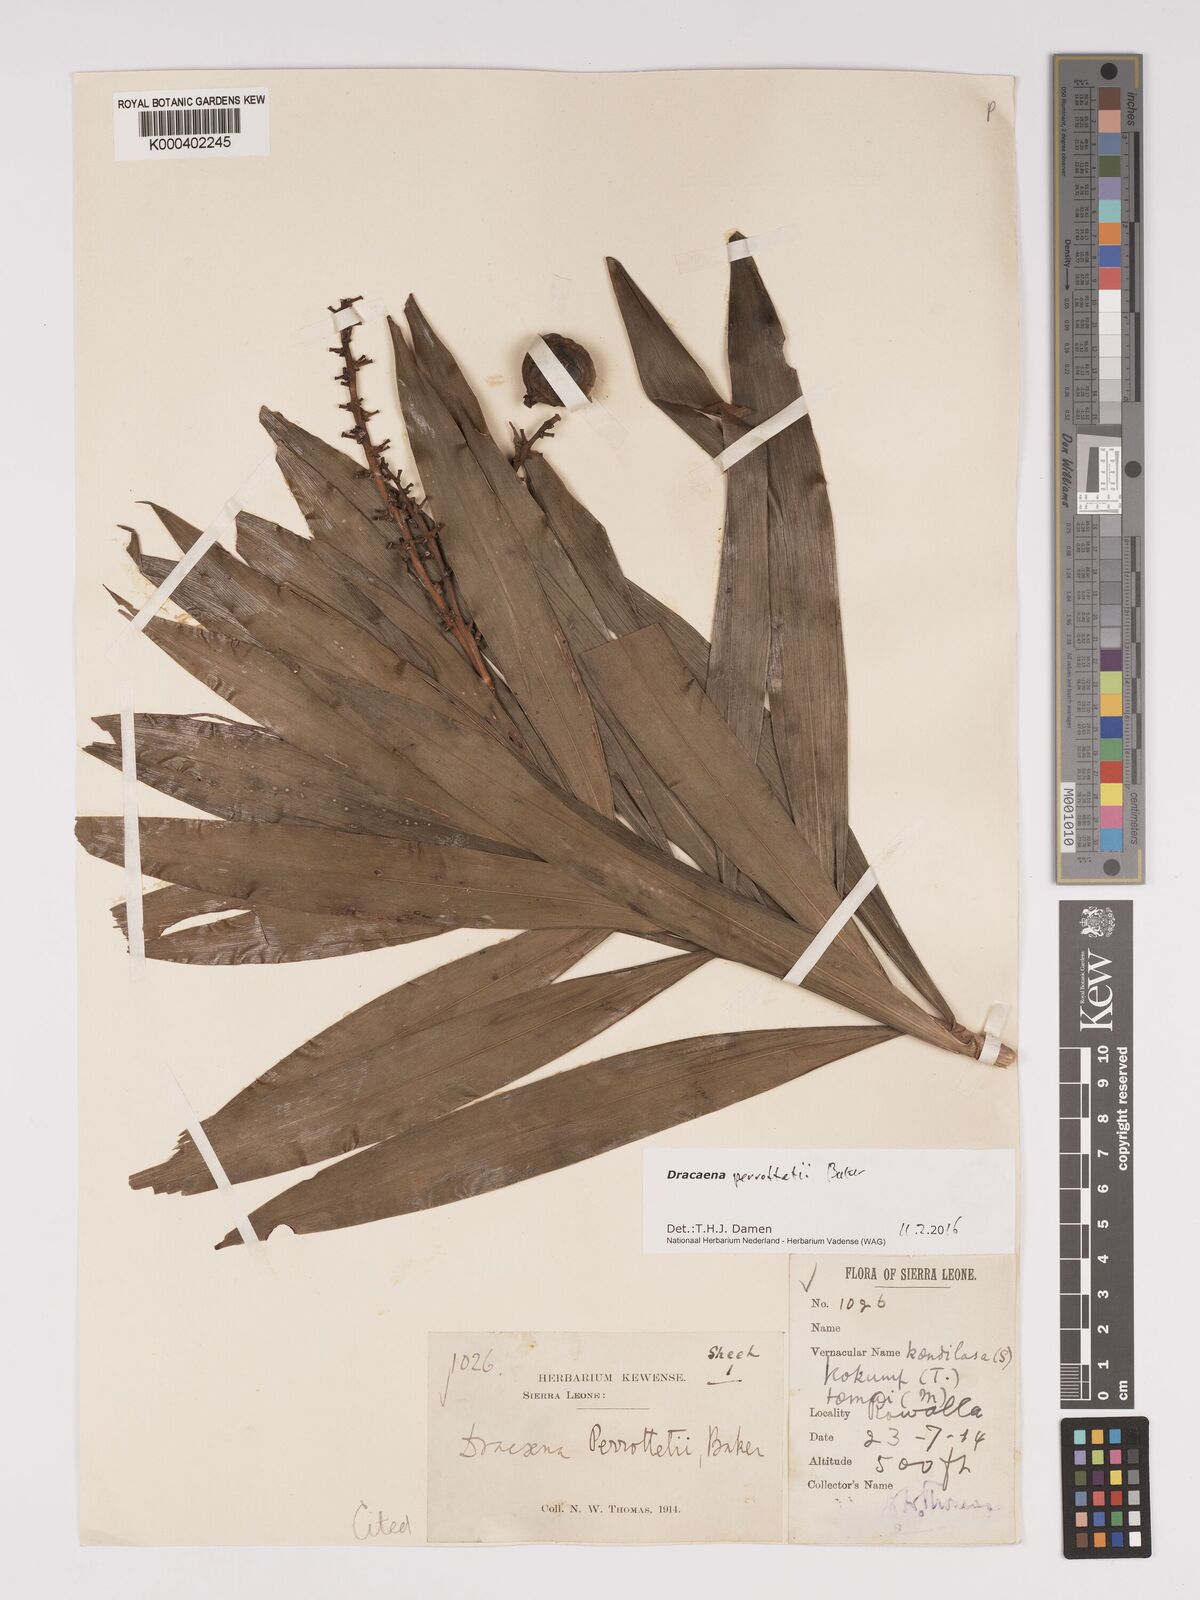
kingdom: Plantae
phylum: Tracheophyta
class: Liliopsida
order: Asparagales
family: Asparagaceae
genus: Dracaena
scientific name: Dracaena perrottetii
